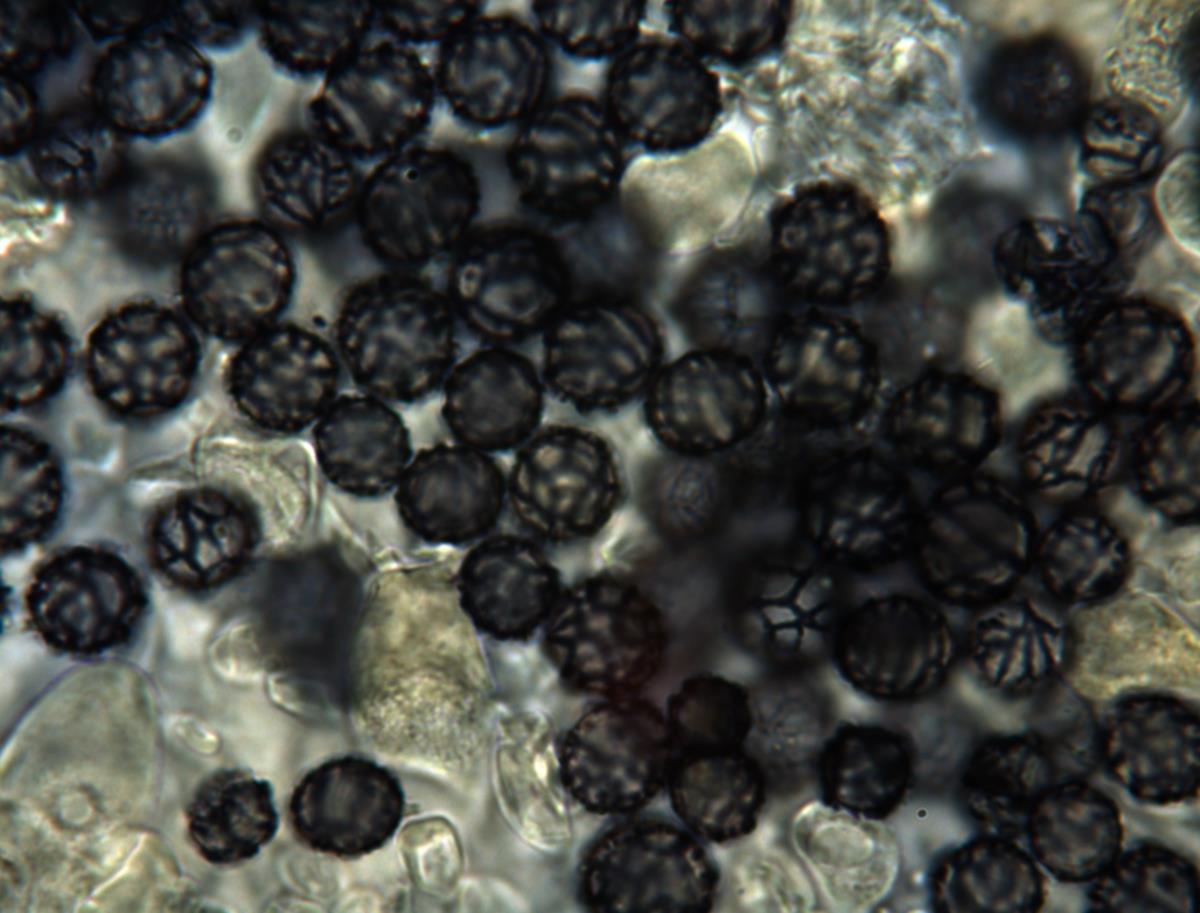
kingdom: Fungi
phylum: Basidiomycota
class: Agaricomycetes
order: Russulales
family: Russulaceae
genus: Zelleromyces
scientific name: Zelleromyces
